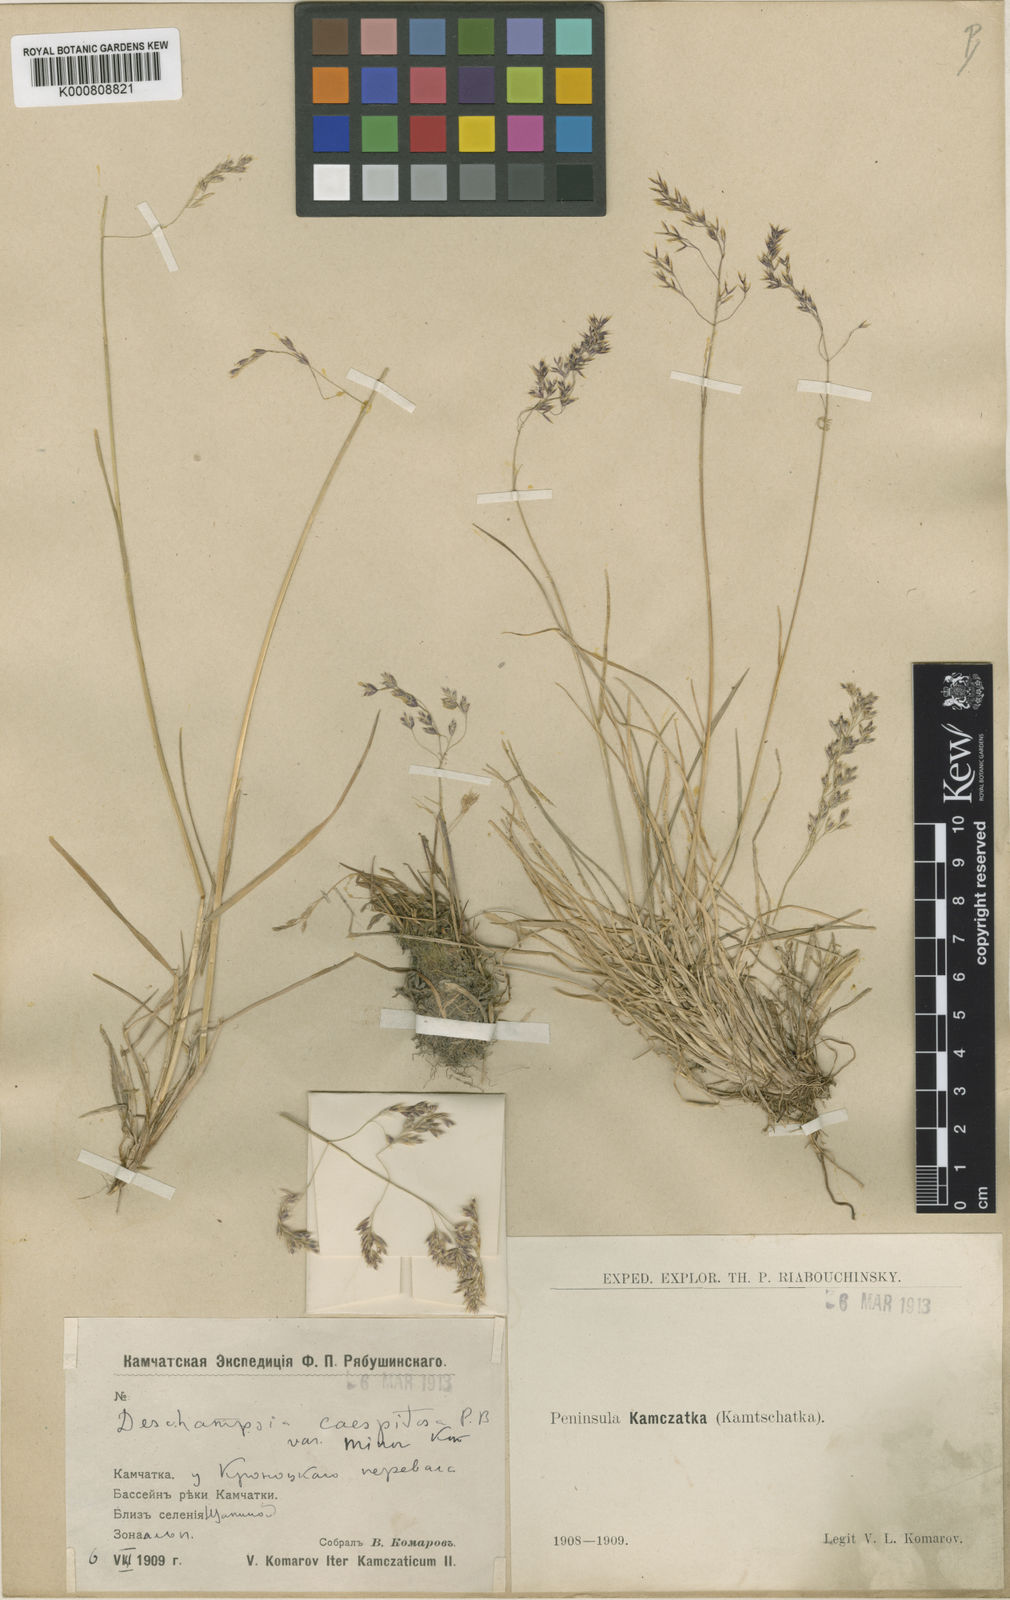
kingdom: Plantae
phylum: Tracheophyta
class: Liliopsida
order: Poales
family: Poaceae
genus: Deschampsia
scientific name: Deschampsia
